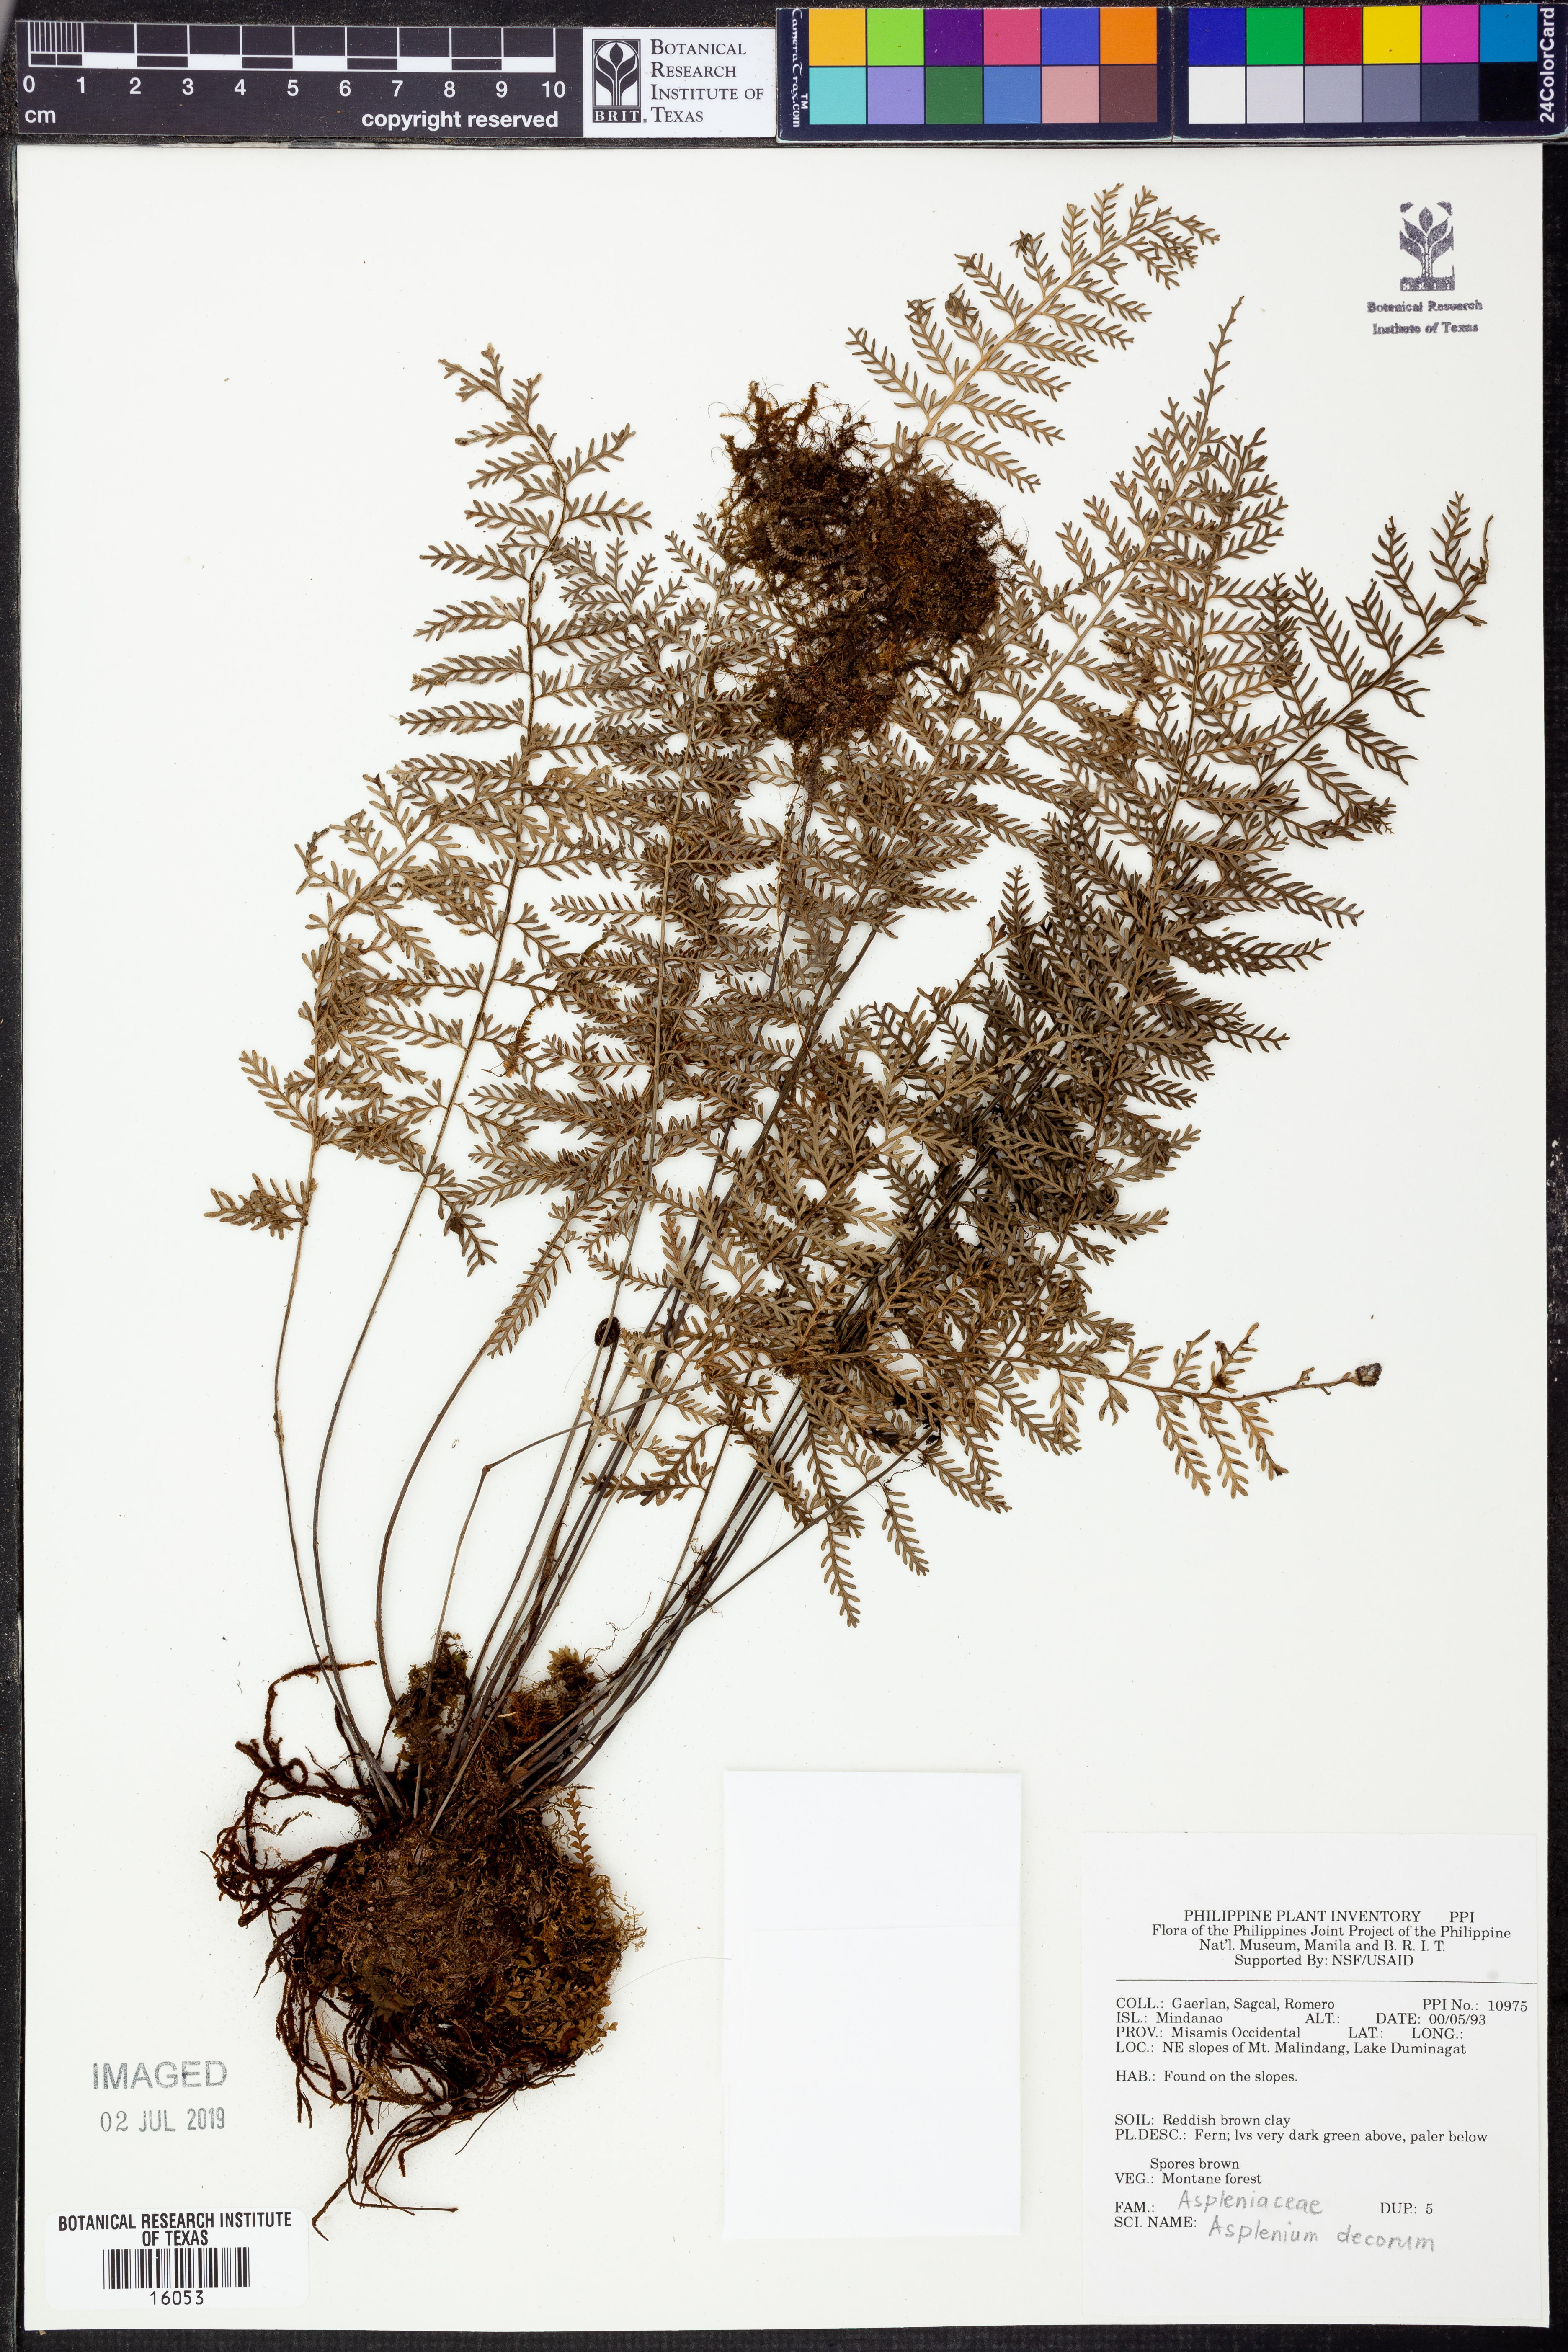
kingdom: Plantae
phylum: Tracheophyta
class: Polypodiopsida
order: Polypodiales
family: Aspleniaceae
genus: Asplenium
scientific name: Asplenium thunbergii
